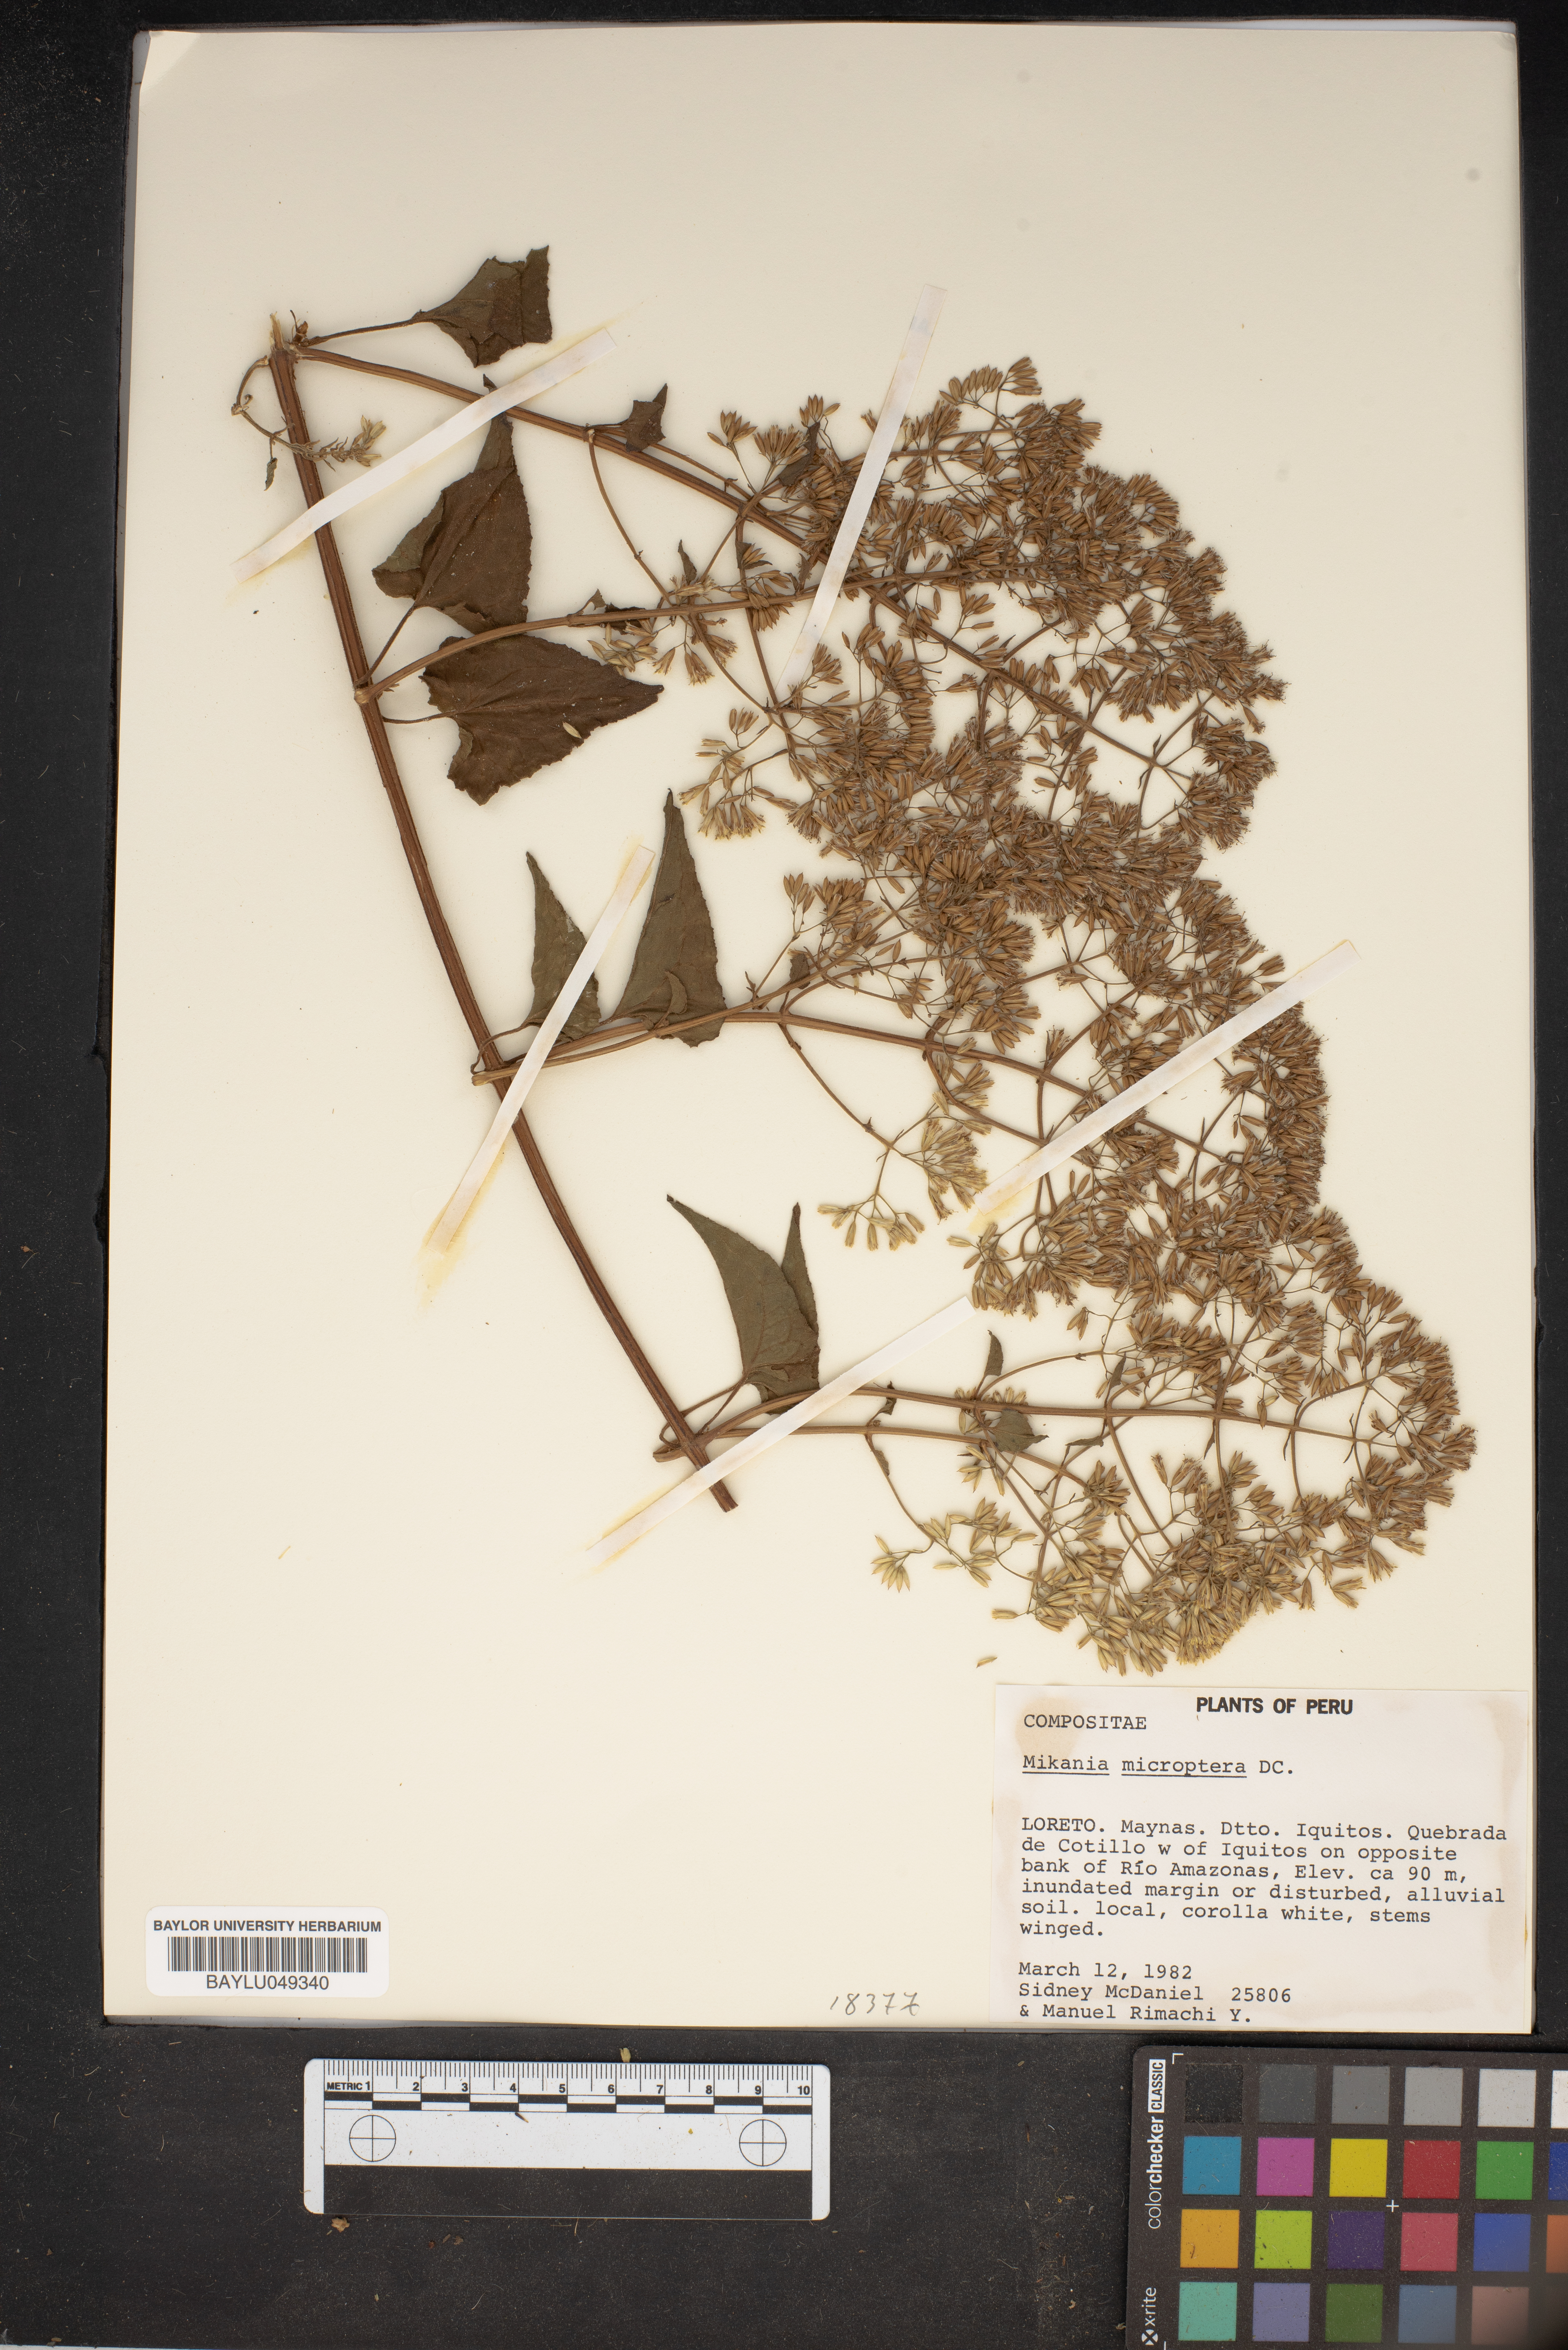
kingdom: Plantae
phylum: Tracheophyta
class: Magnoliopsida
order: Asterales
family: Asteraceae
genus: Mikania
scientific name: Mikania microptera
